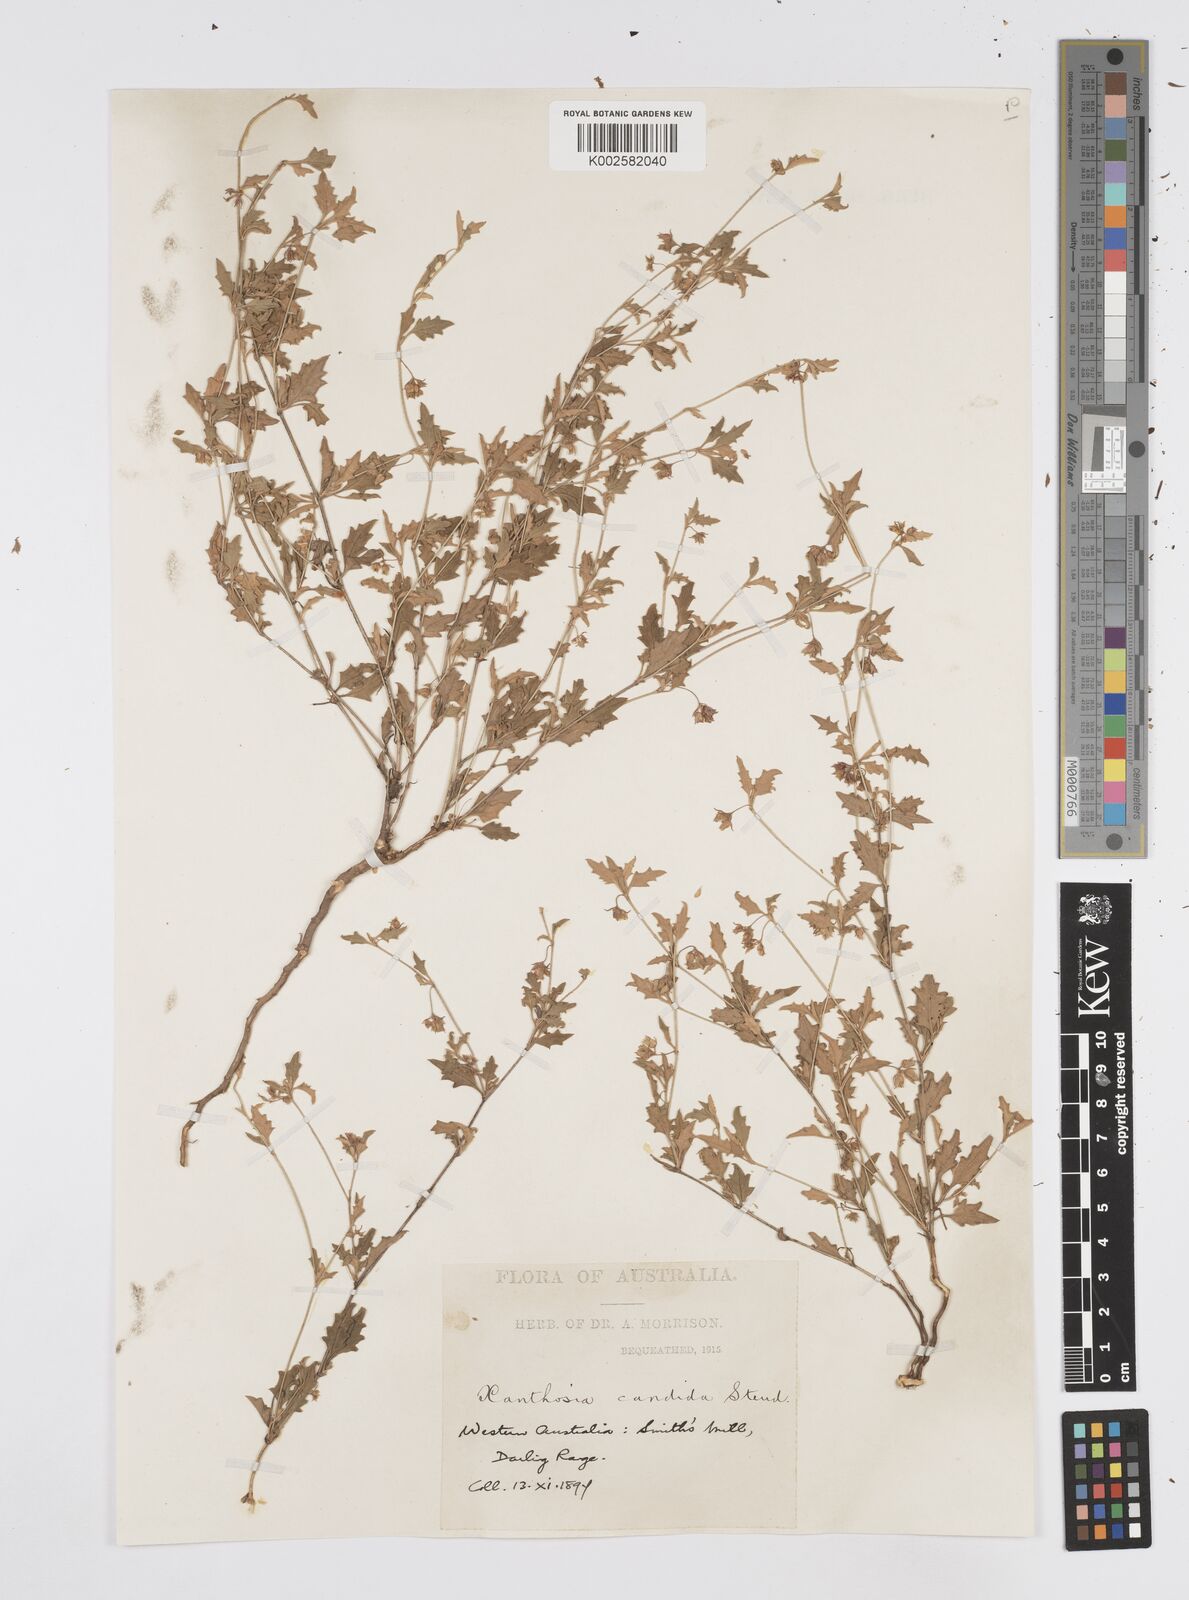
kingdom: Plantae
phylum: Tracheophyta
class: Magnoliopsida
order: Apiales
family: Apiaceae
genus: Xanthosia
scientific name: Xanthosia candida
